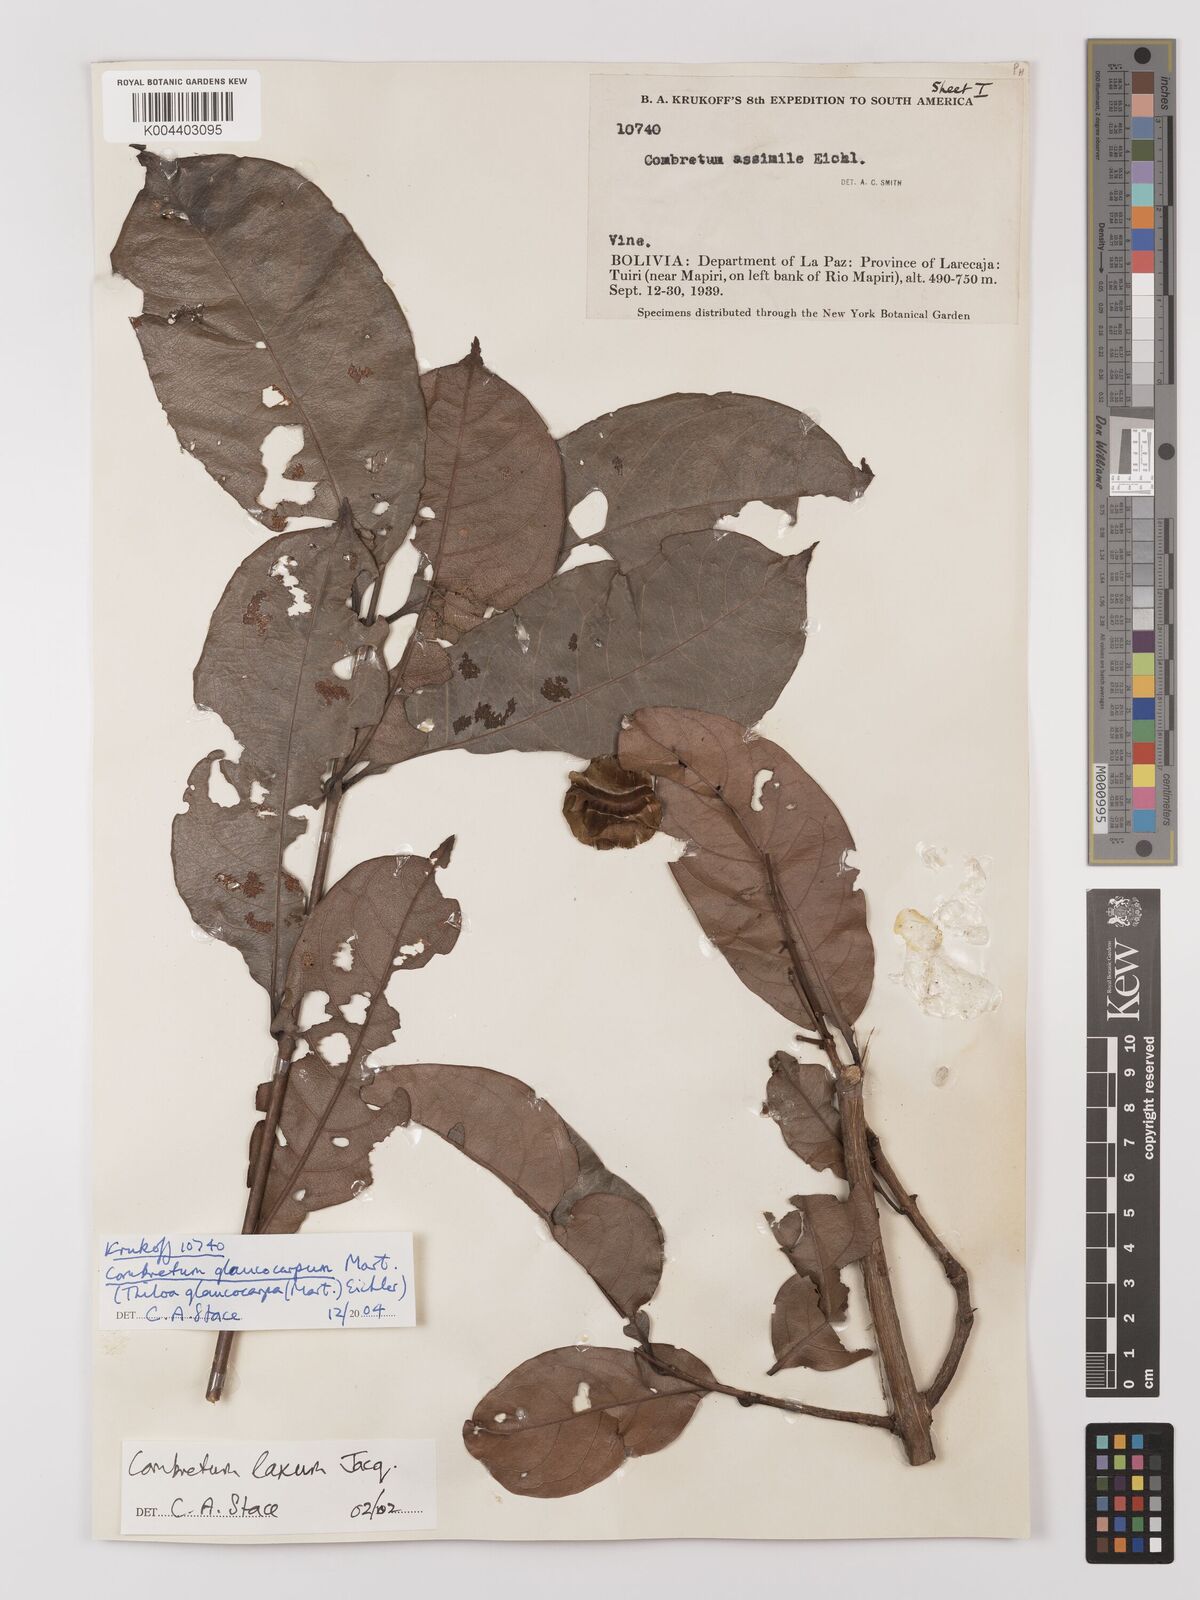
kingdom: Plantae
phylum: Tracheophyta
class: Magnoliopsida
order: Myrtales
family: Combretaceae
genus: Combretum
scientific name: Combretum glaucocarpum
